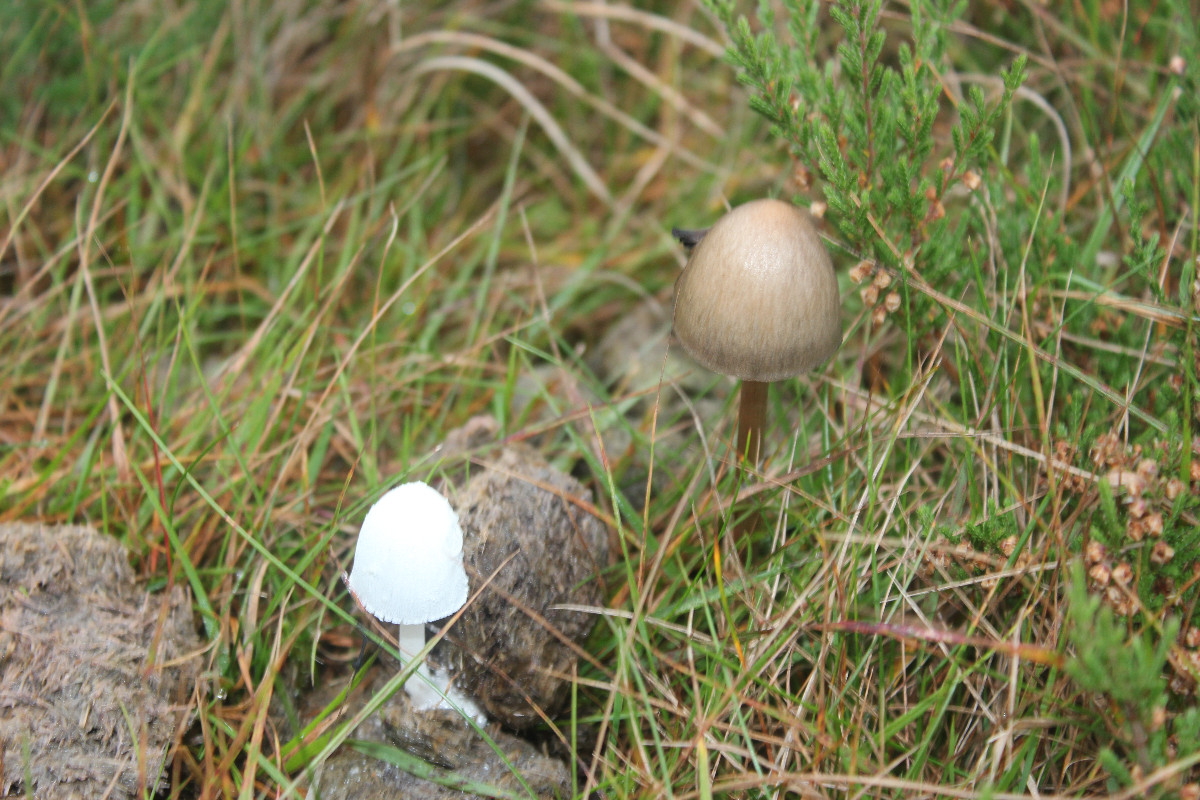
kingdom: Fungi
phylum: Basidiomycota
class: Agaricomycetes
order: Agaricales
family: Psathyrellaceae
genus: Coprinopsis
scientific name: Coprinopsis nivea
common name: snehvid blækhat
